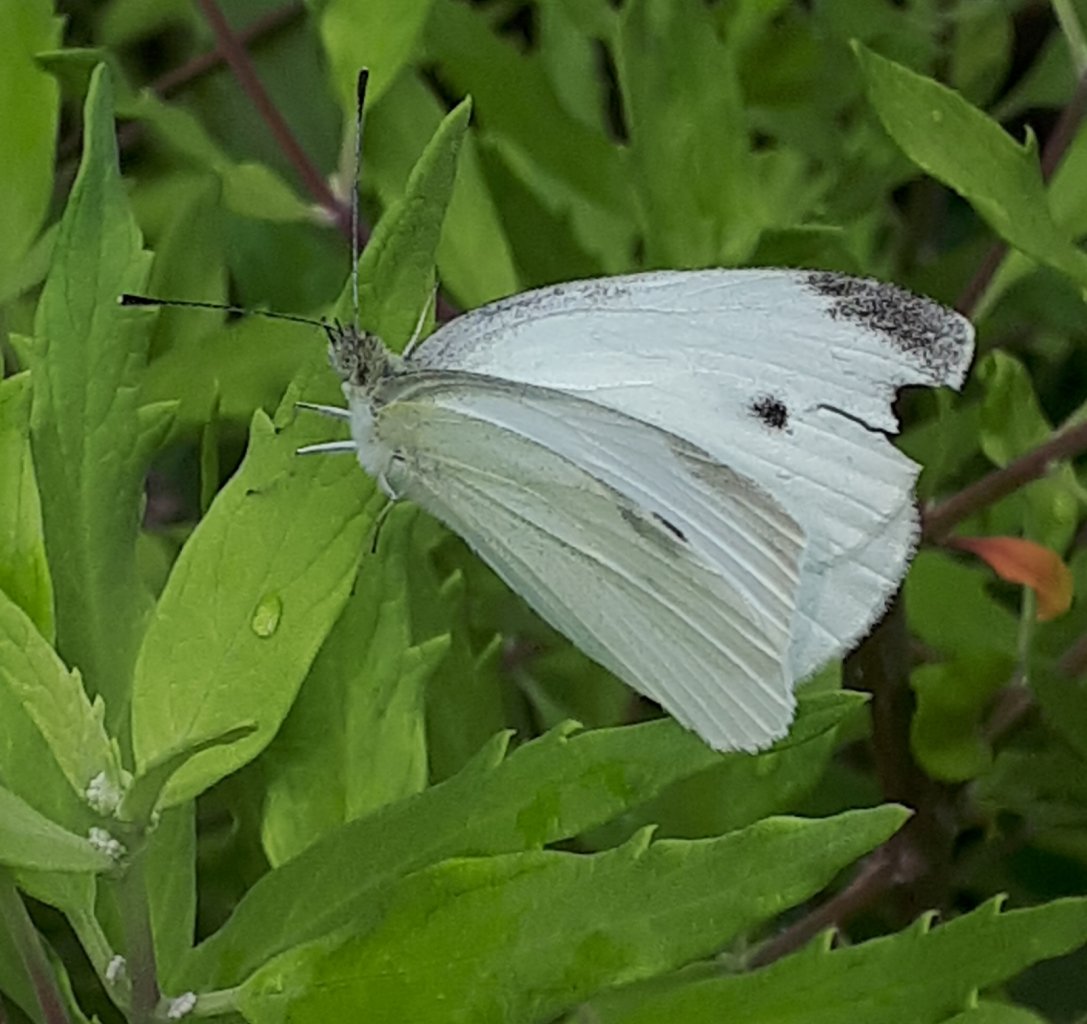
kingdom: Animalia
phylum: Arthropoda
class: Insecta
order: Lepidoptera
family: Pieridae
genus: Pieris
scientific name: Pieris rapae
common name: Cabbage White
